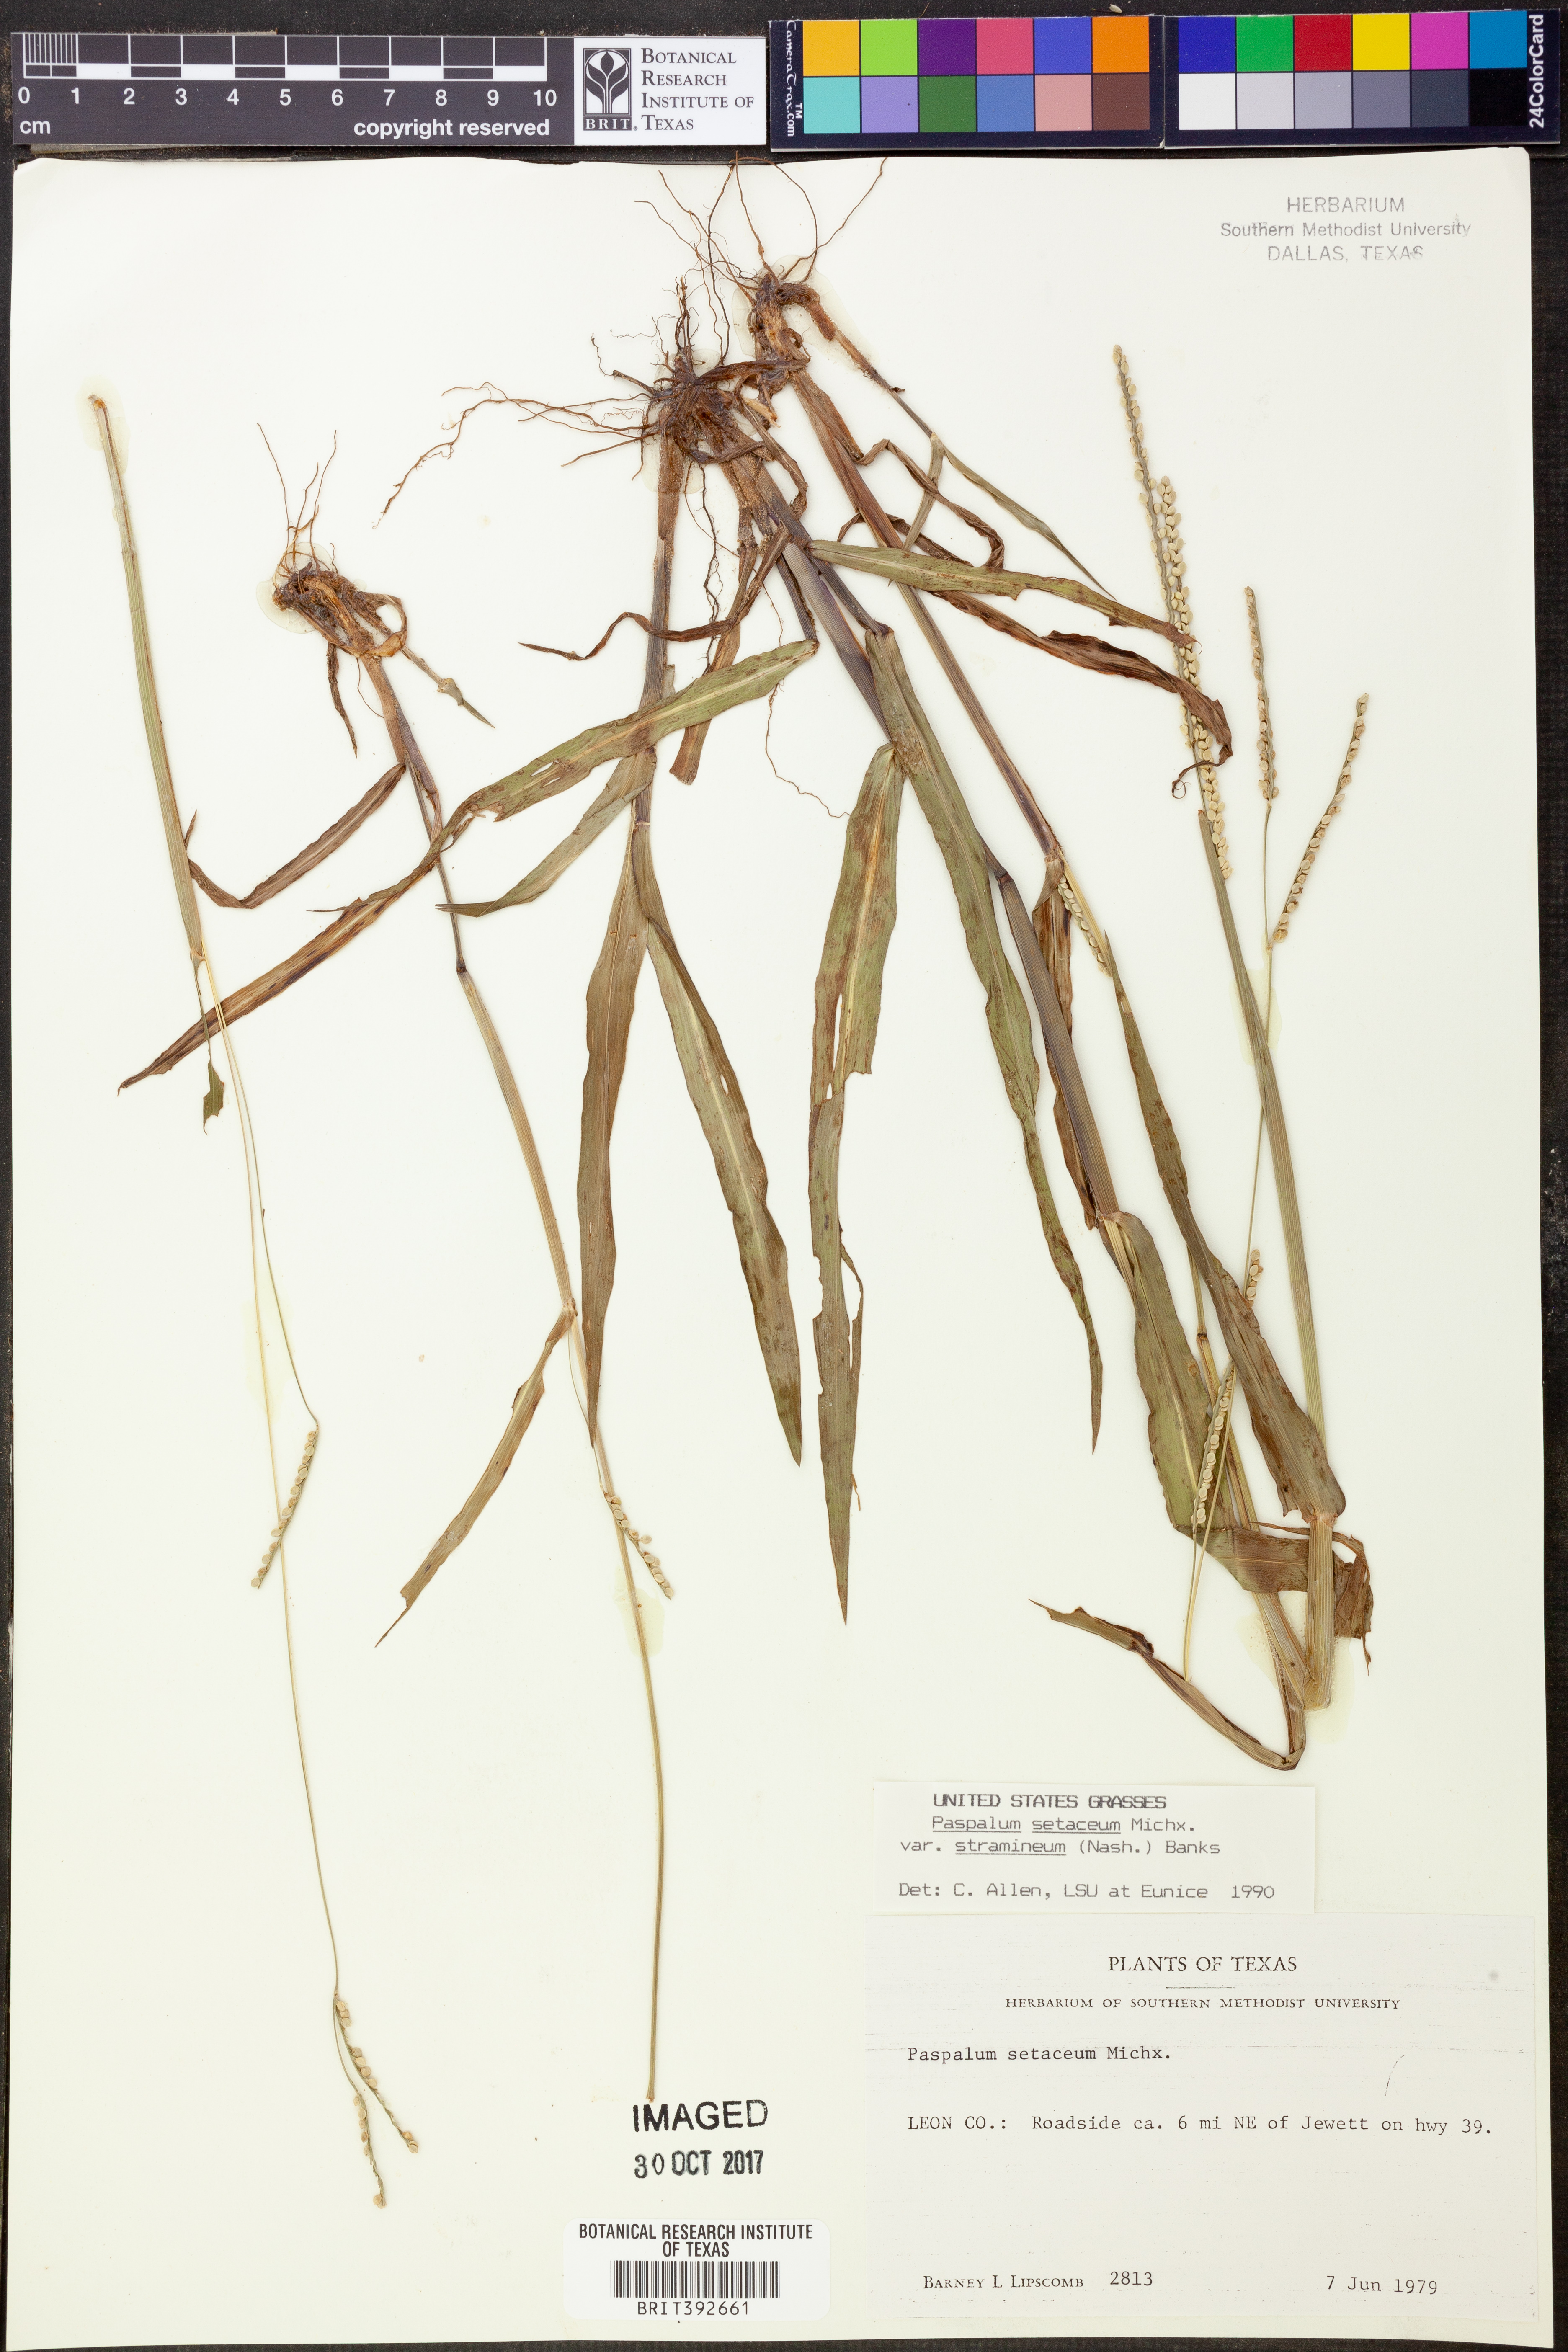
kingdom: Plantae
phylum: Tracheophyta
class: Liliopsida
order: Poales
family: Poaceae
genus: Paspalum
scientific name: Paspalum setaceum
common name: Slender paspalum
